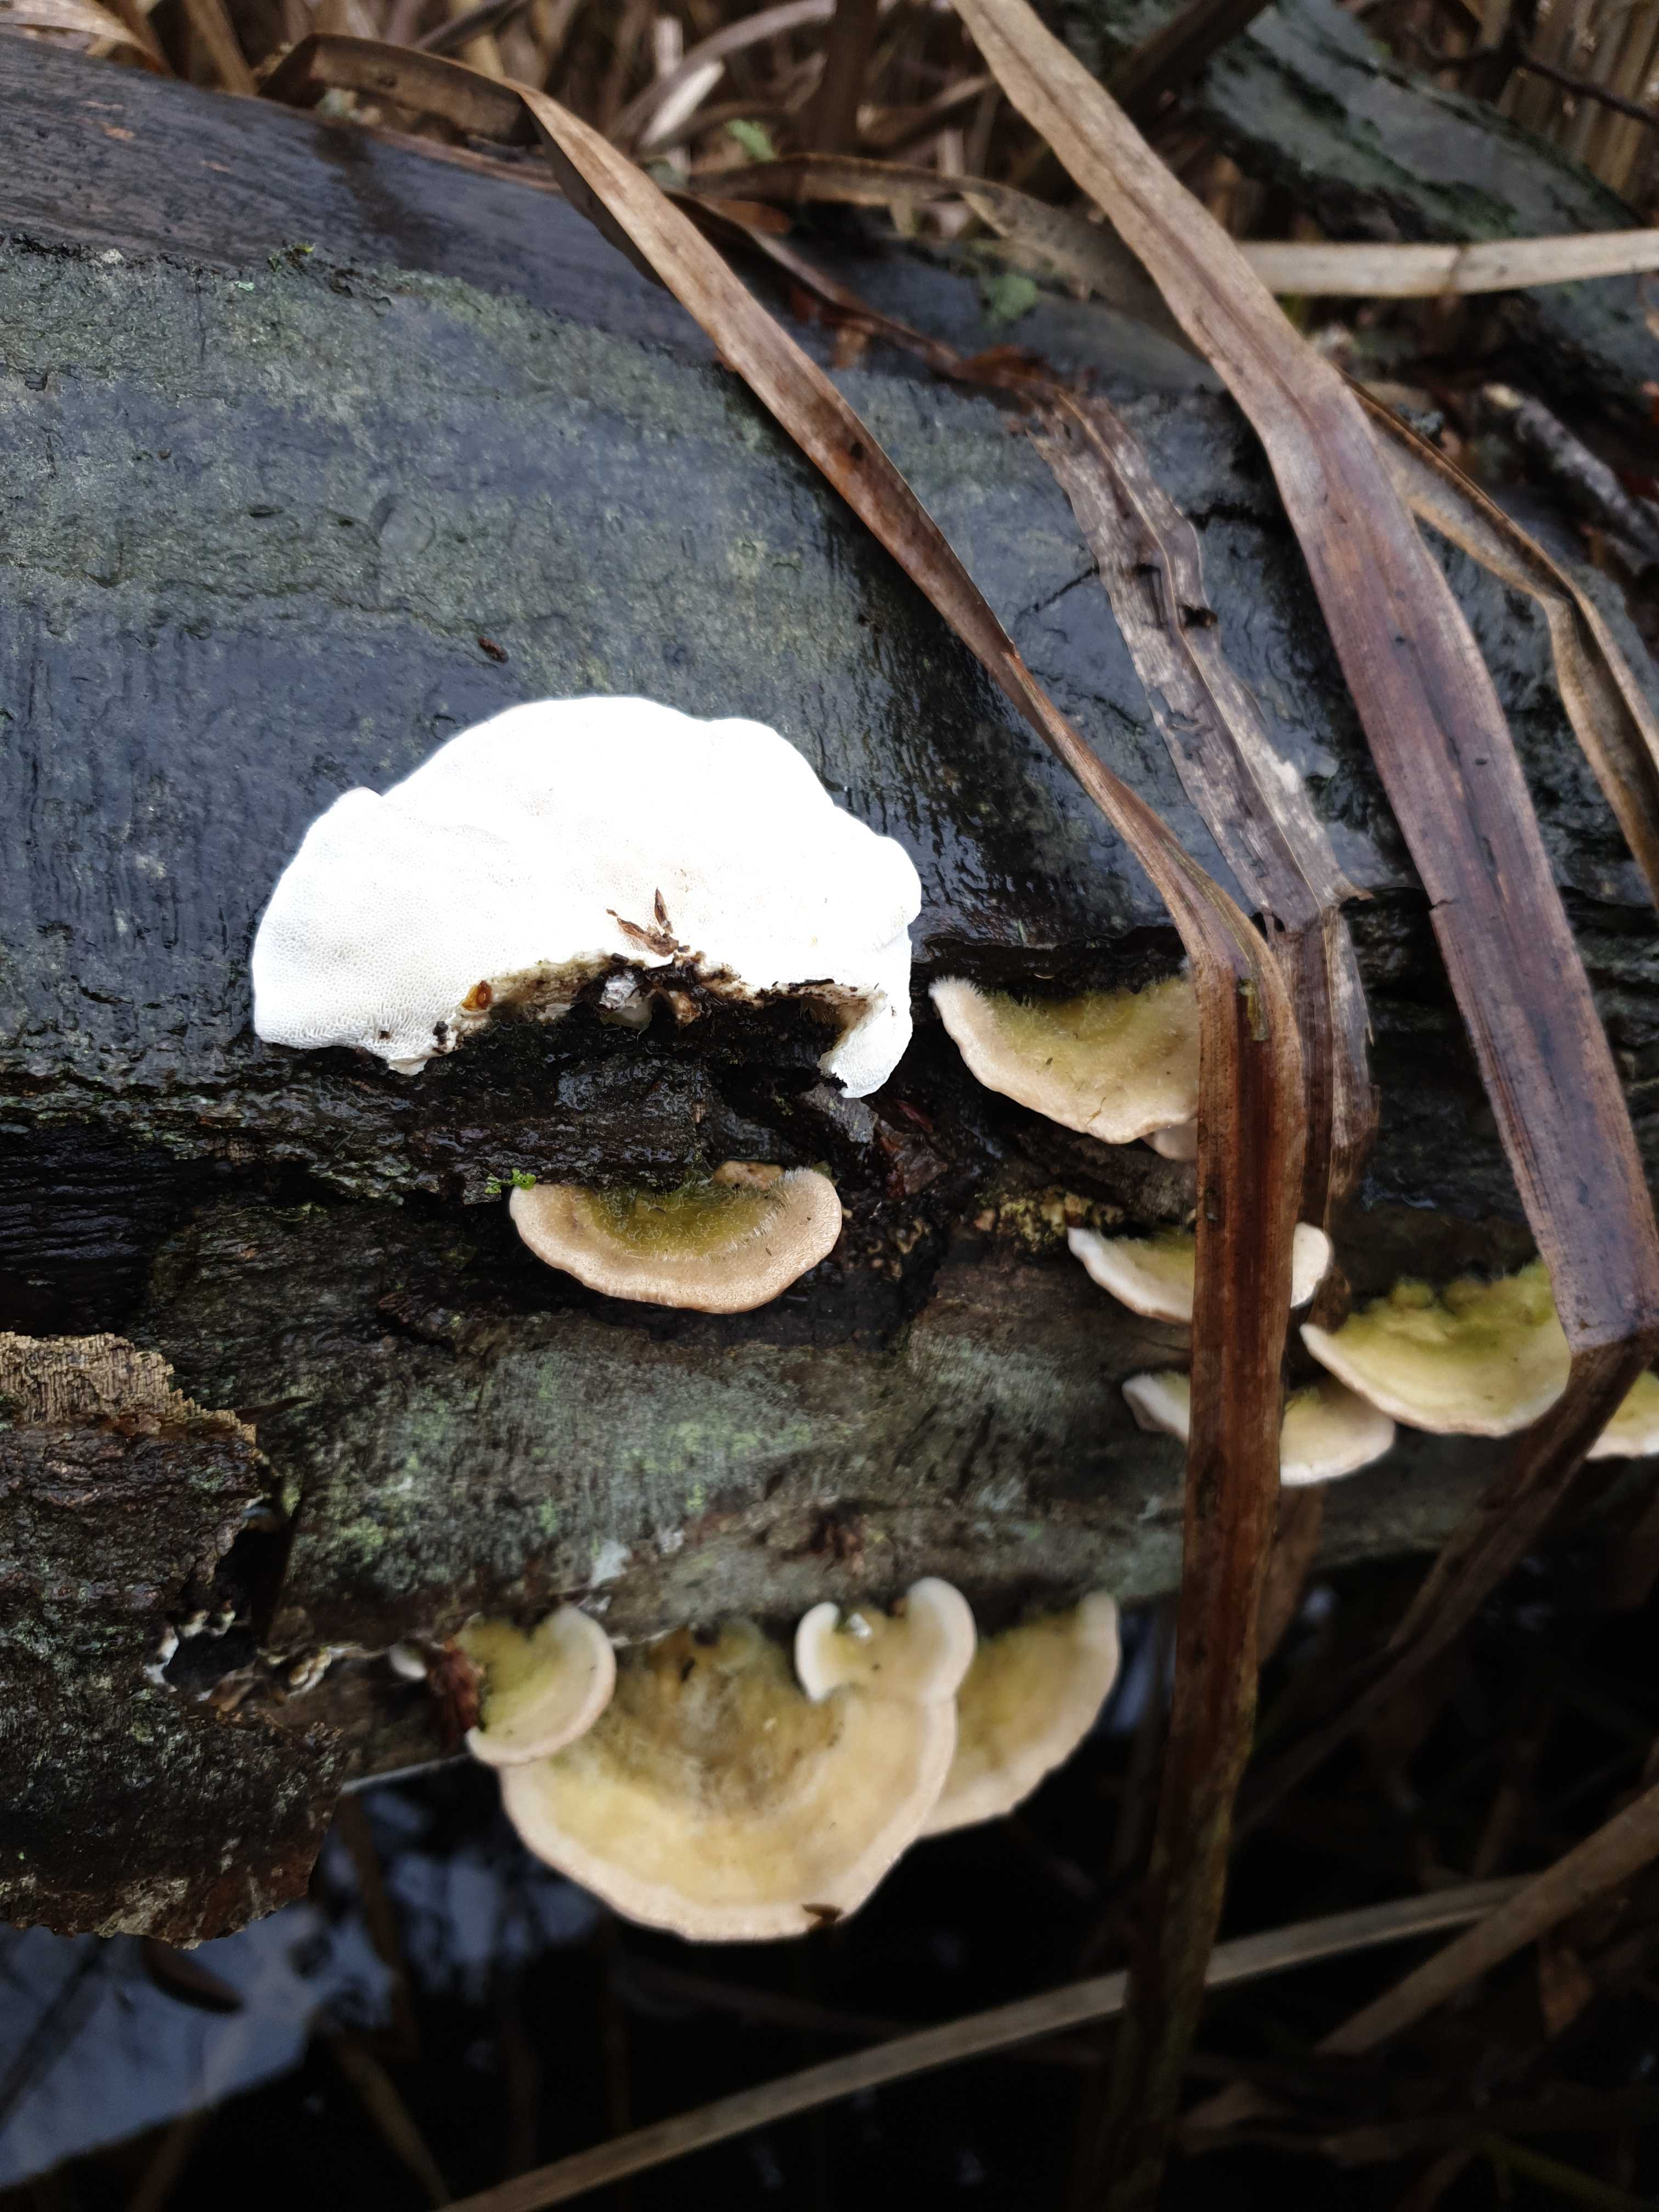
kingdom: Fungi
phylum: Basidiomycota
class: Agaricomycetes
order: Polyporales
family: Polyporaceae
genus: Trametes
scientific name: Trametes hirsuta
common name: håret læderporesvamp
